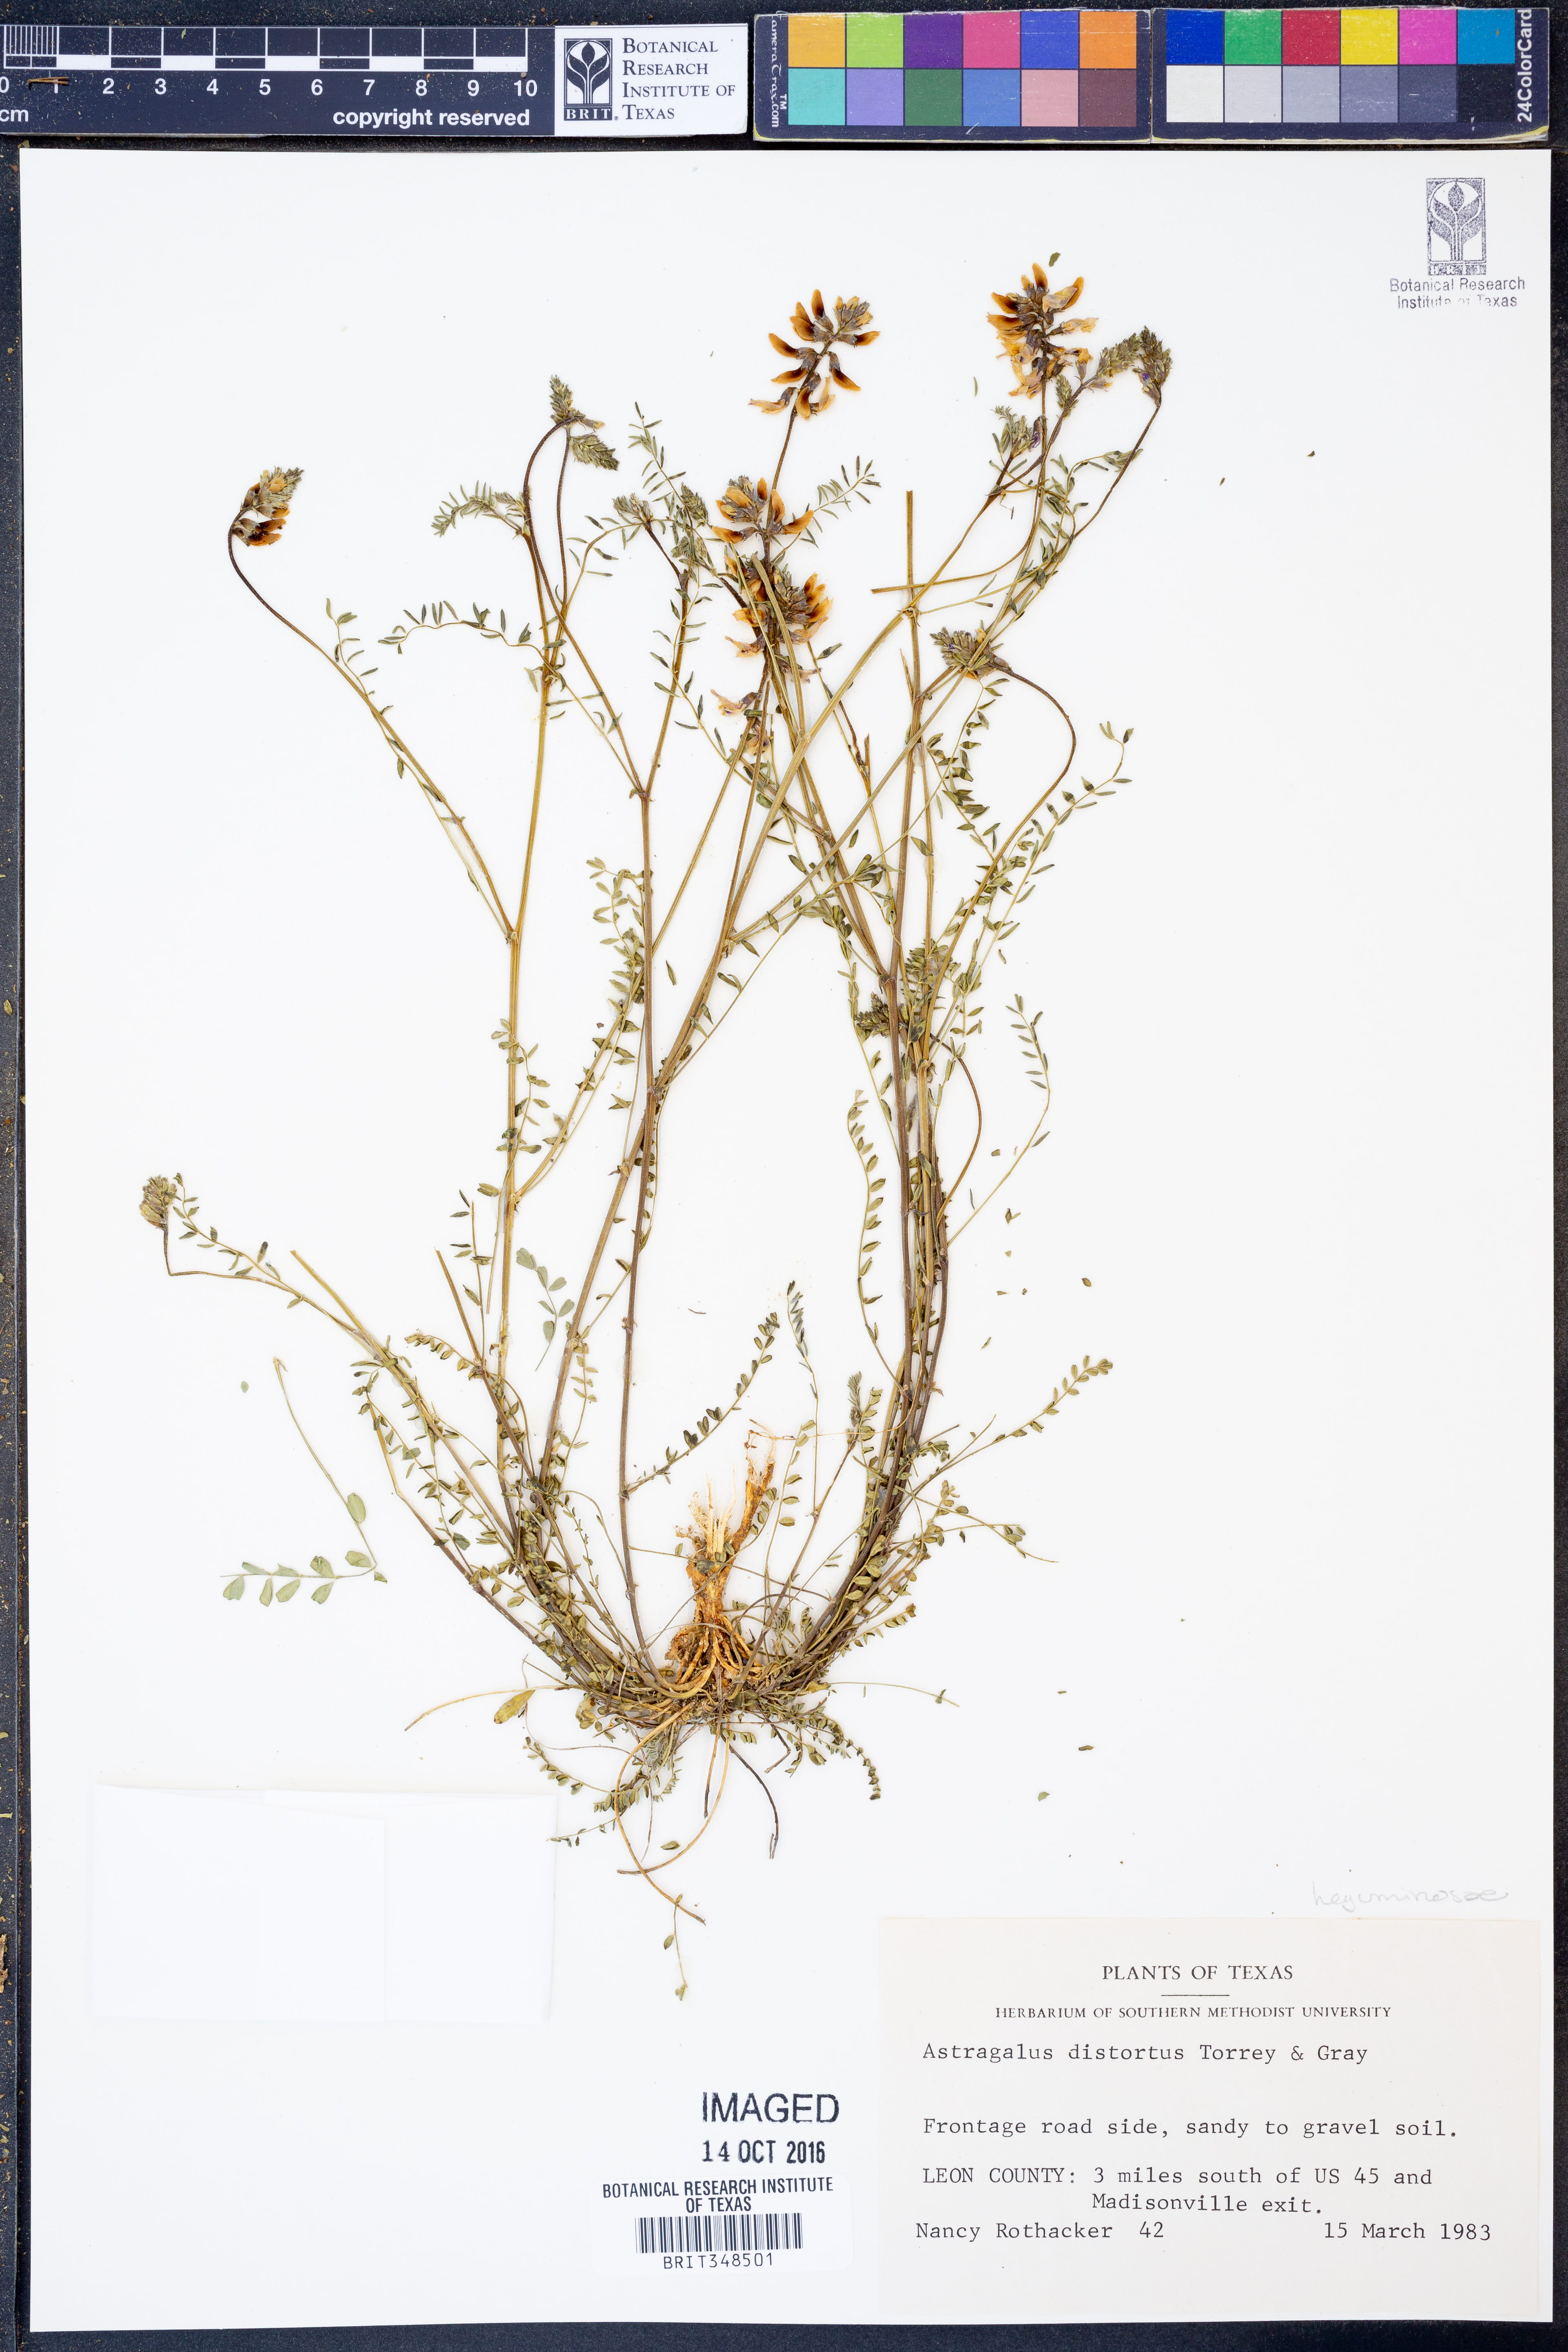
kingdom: Plantae
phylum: Tracheophyta
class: Magnoliopsida
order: Fabales
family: Fabaceae
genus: Astragalus
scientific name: Astragalus distortus
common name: Ozark milk-vetch
